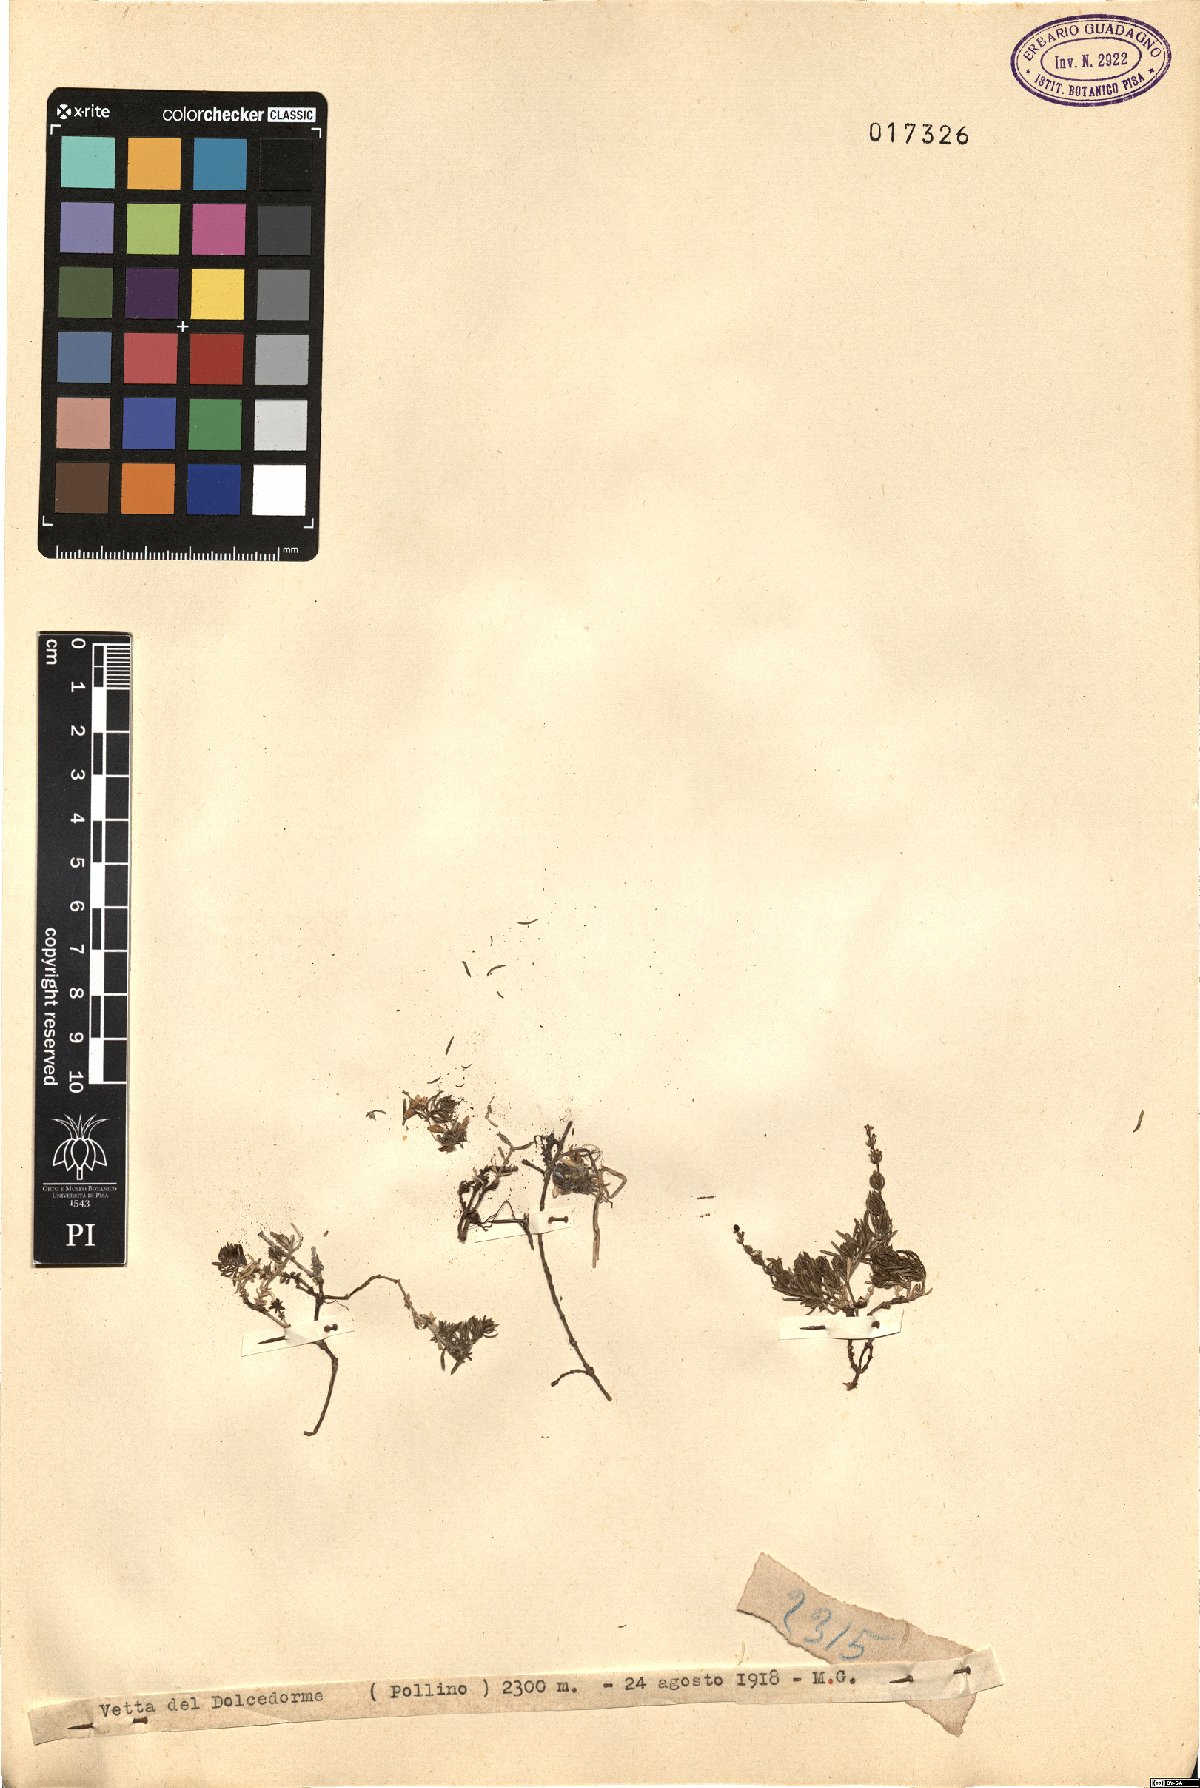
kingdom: Plantae
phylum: Tracheophyta
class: Magnoliopsida
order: Gentianales
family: Rubiaceae
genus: Galium
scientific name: Galium
